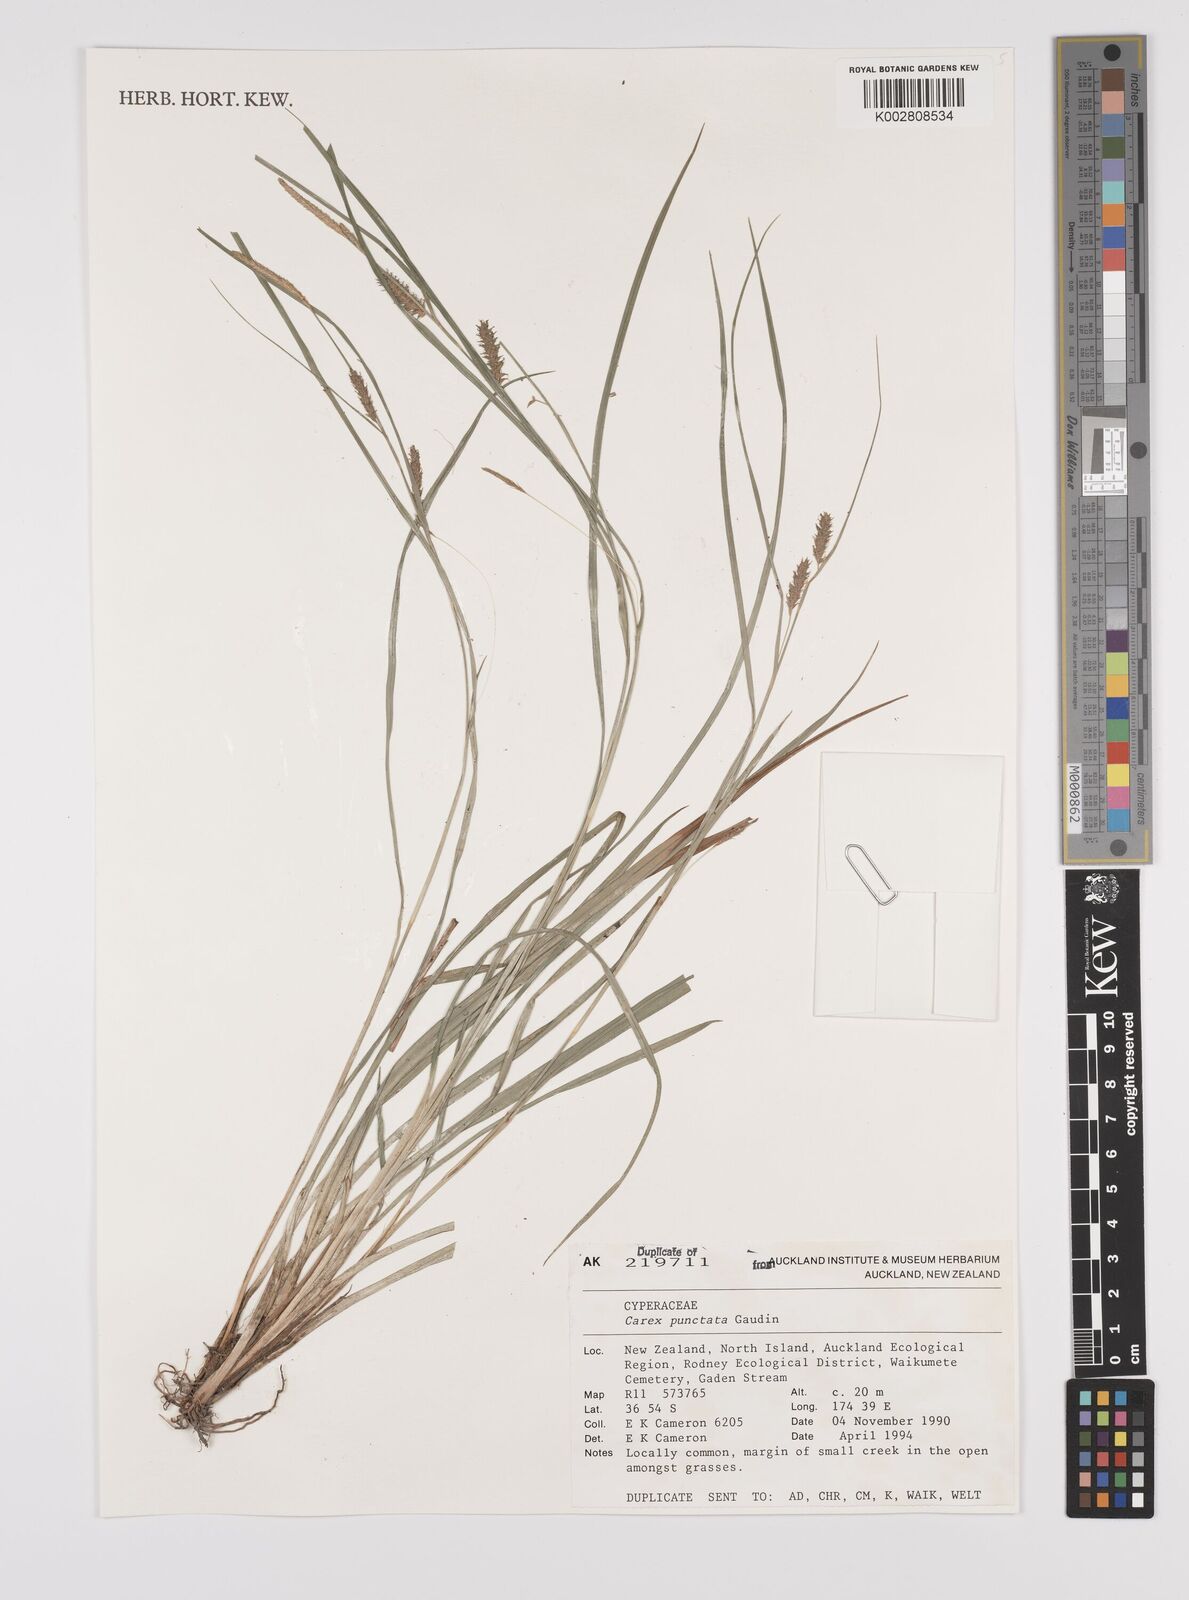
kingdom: Plantae
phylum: Tracheophyta
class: Liliopsida
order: Poales
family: Cyperaceae
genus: Carex
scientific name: Carex punctata
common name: Dotted sedge
